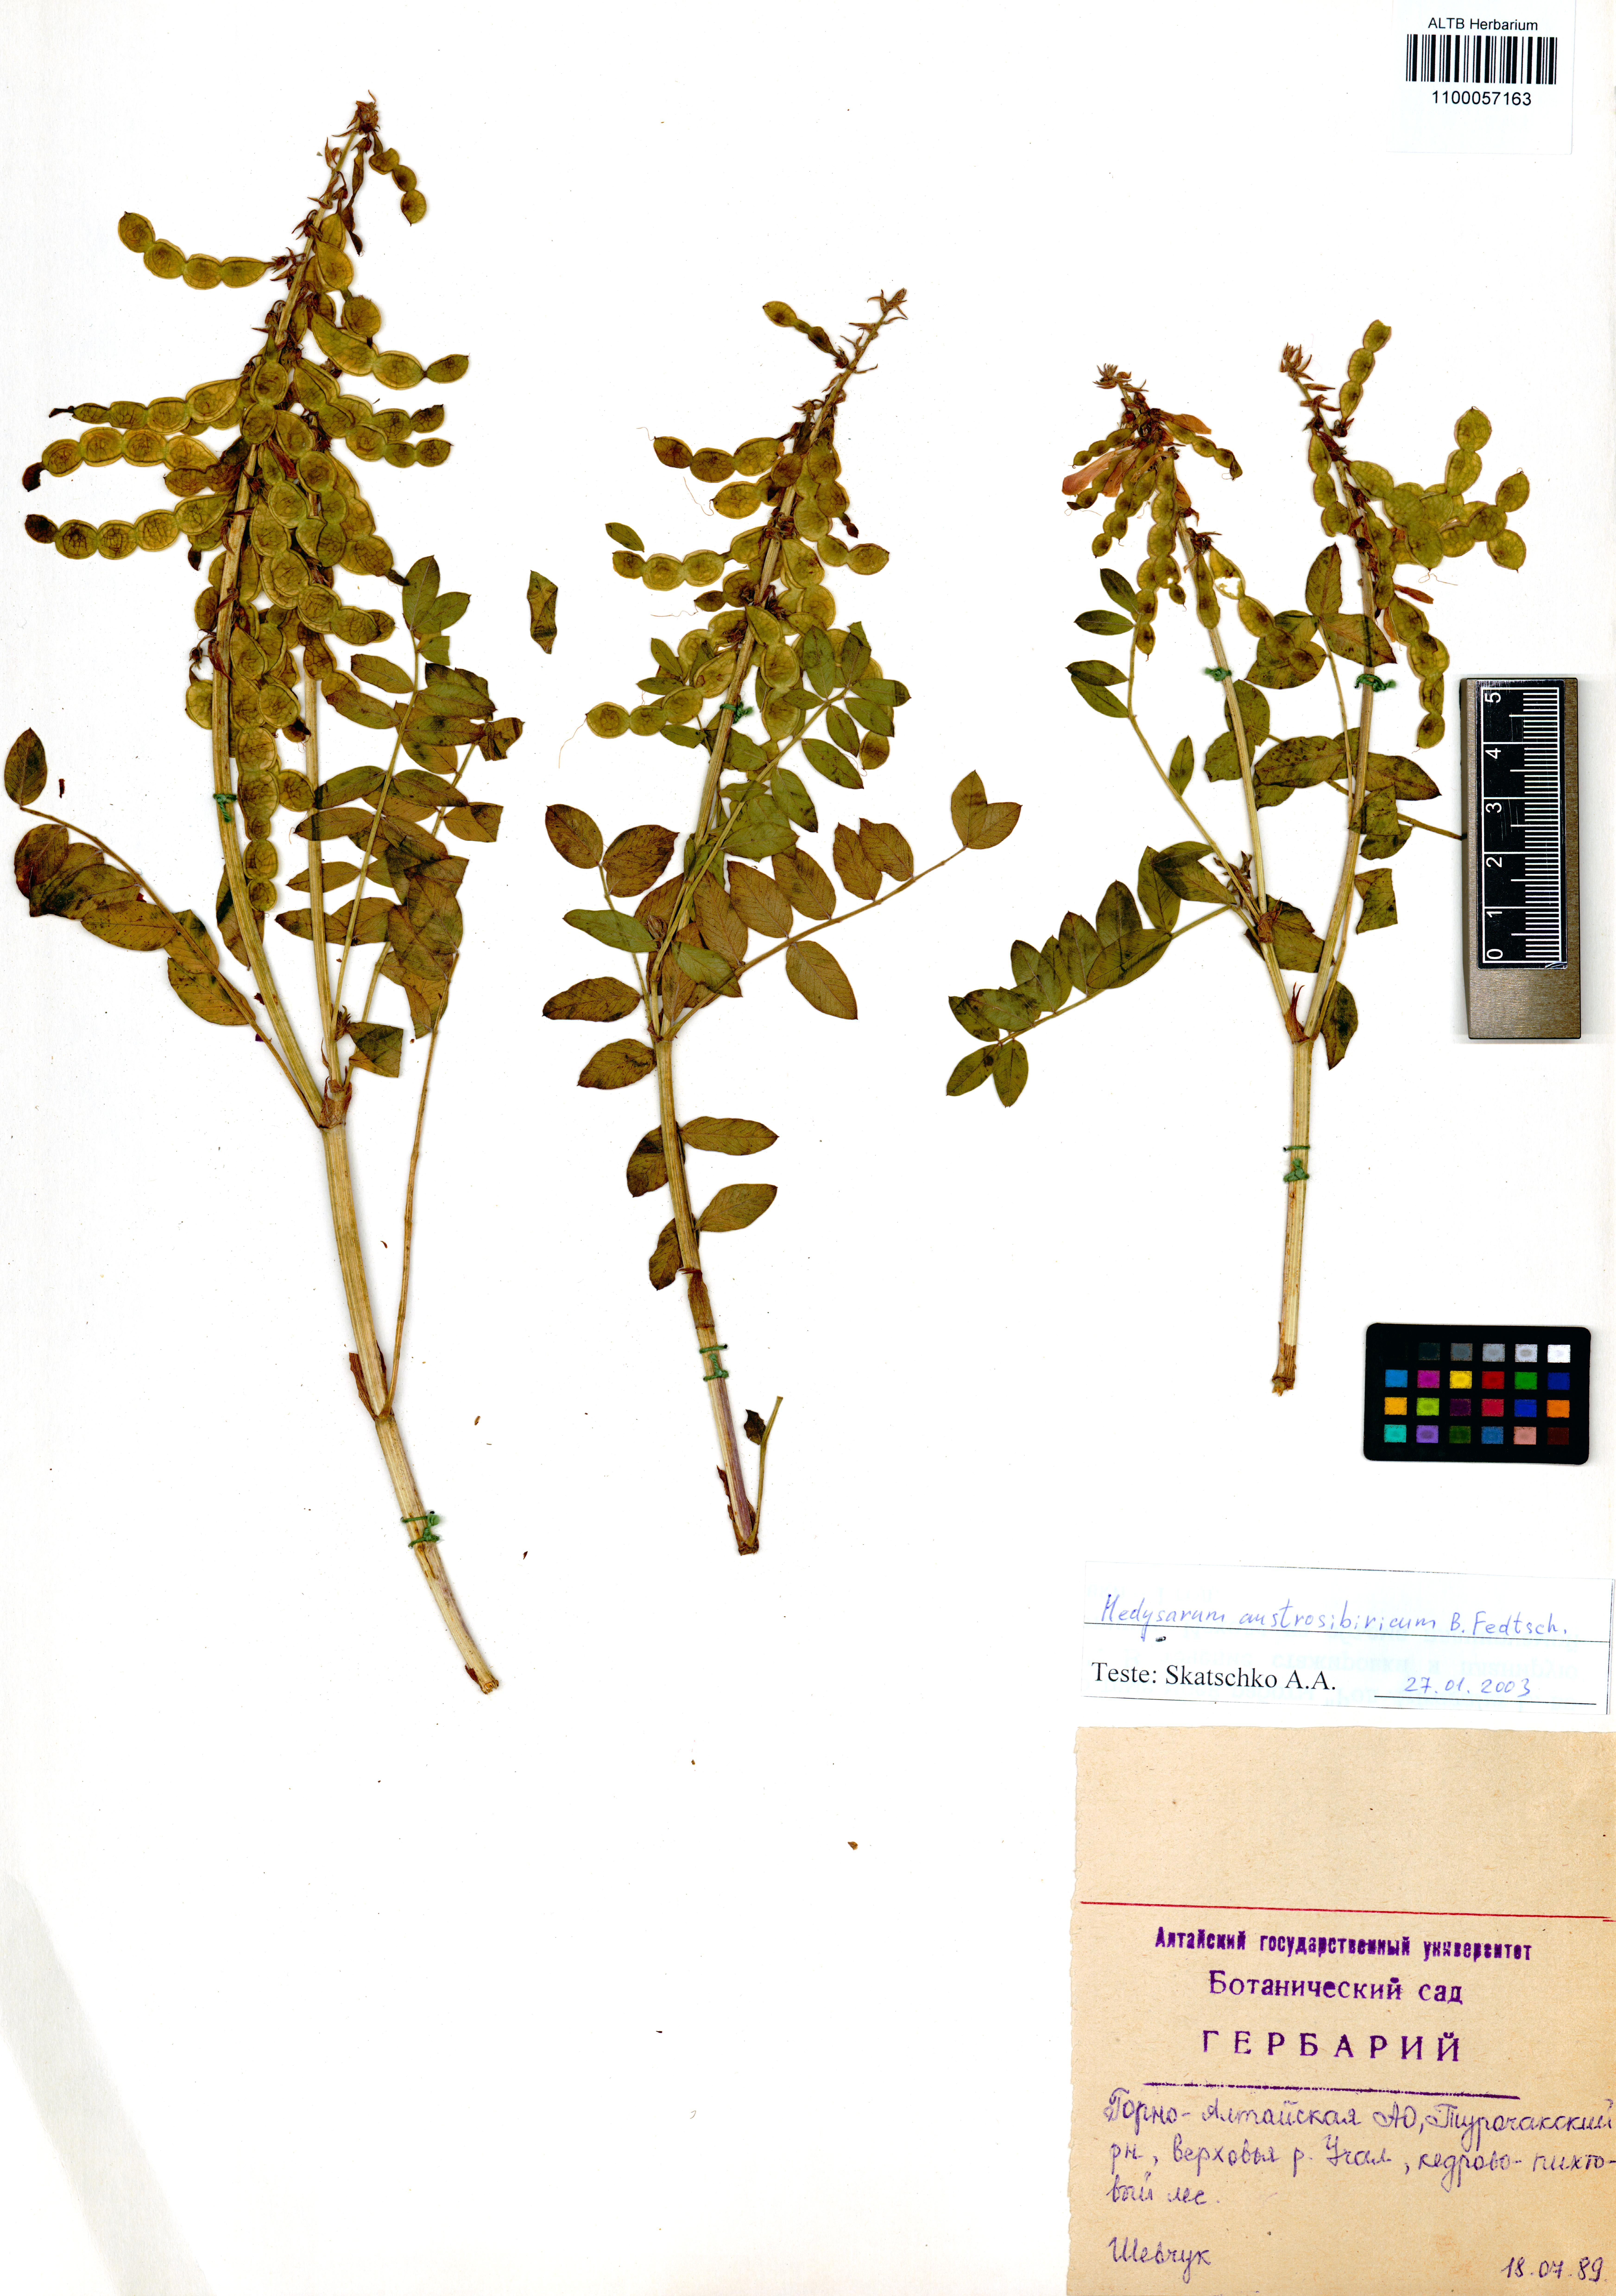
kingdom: Plantae
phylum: Tracheophyta
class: Magnoliopsida
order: Fabales
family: Fabaceae
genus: Hedysarum
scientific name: Hedysarum neglectum
